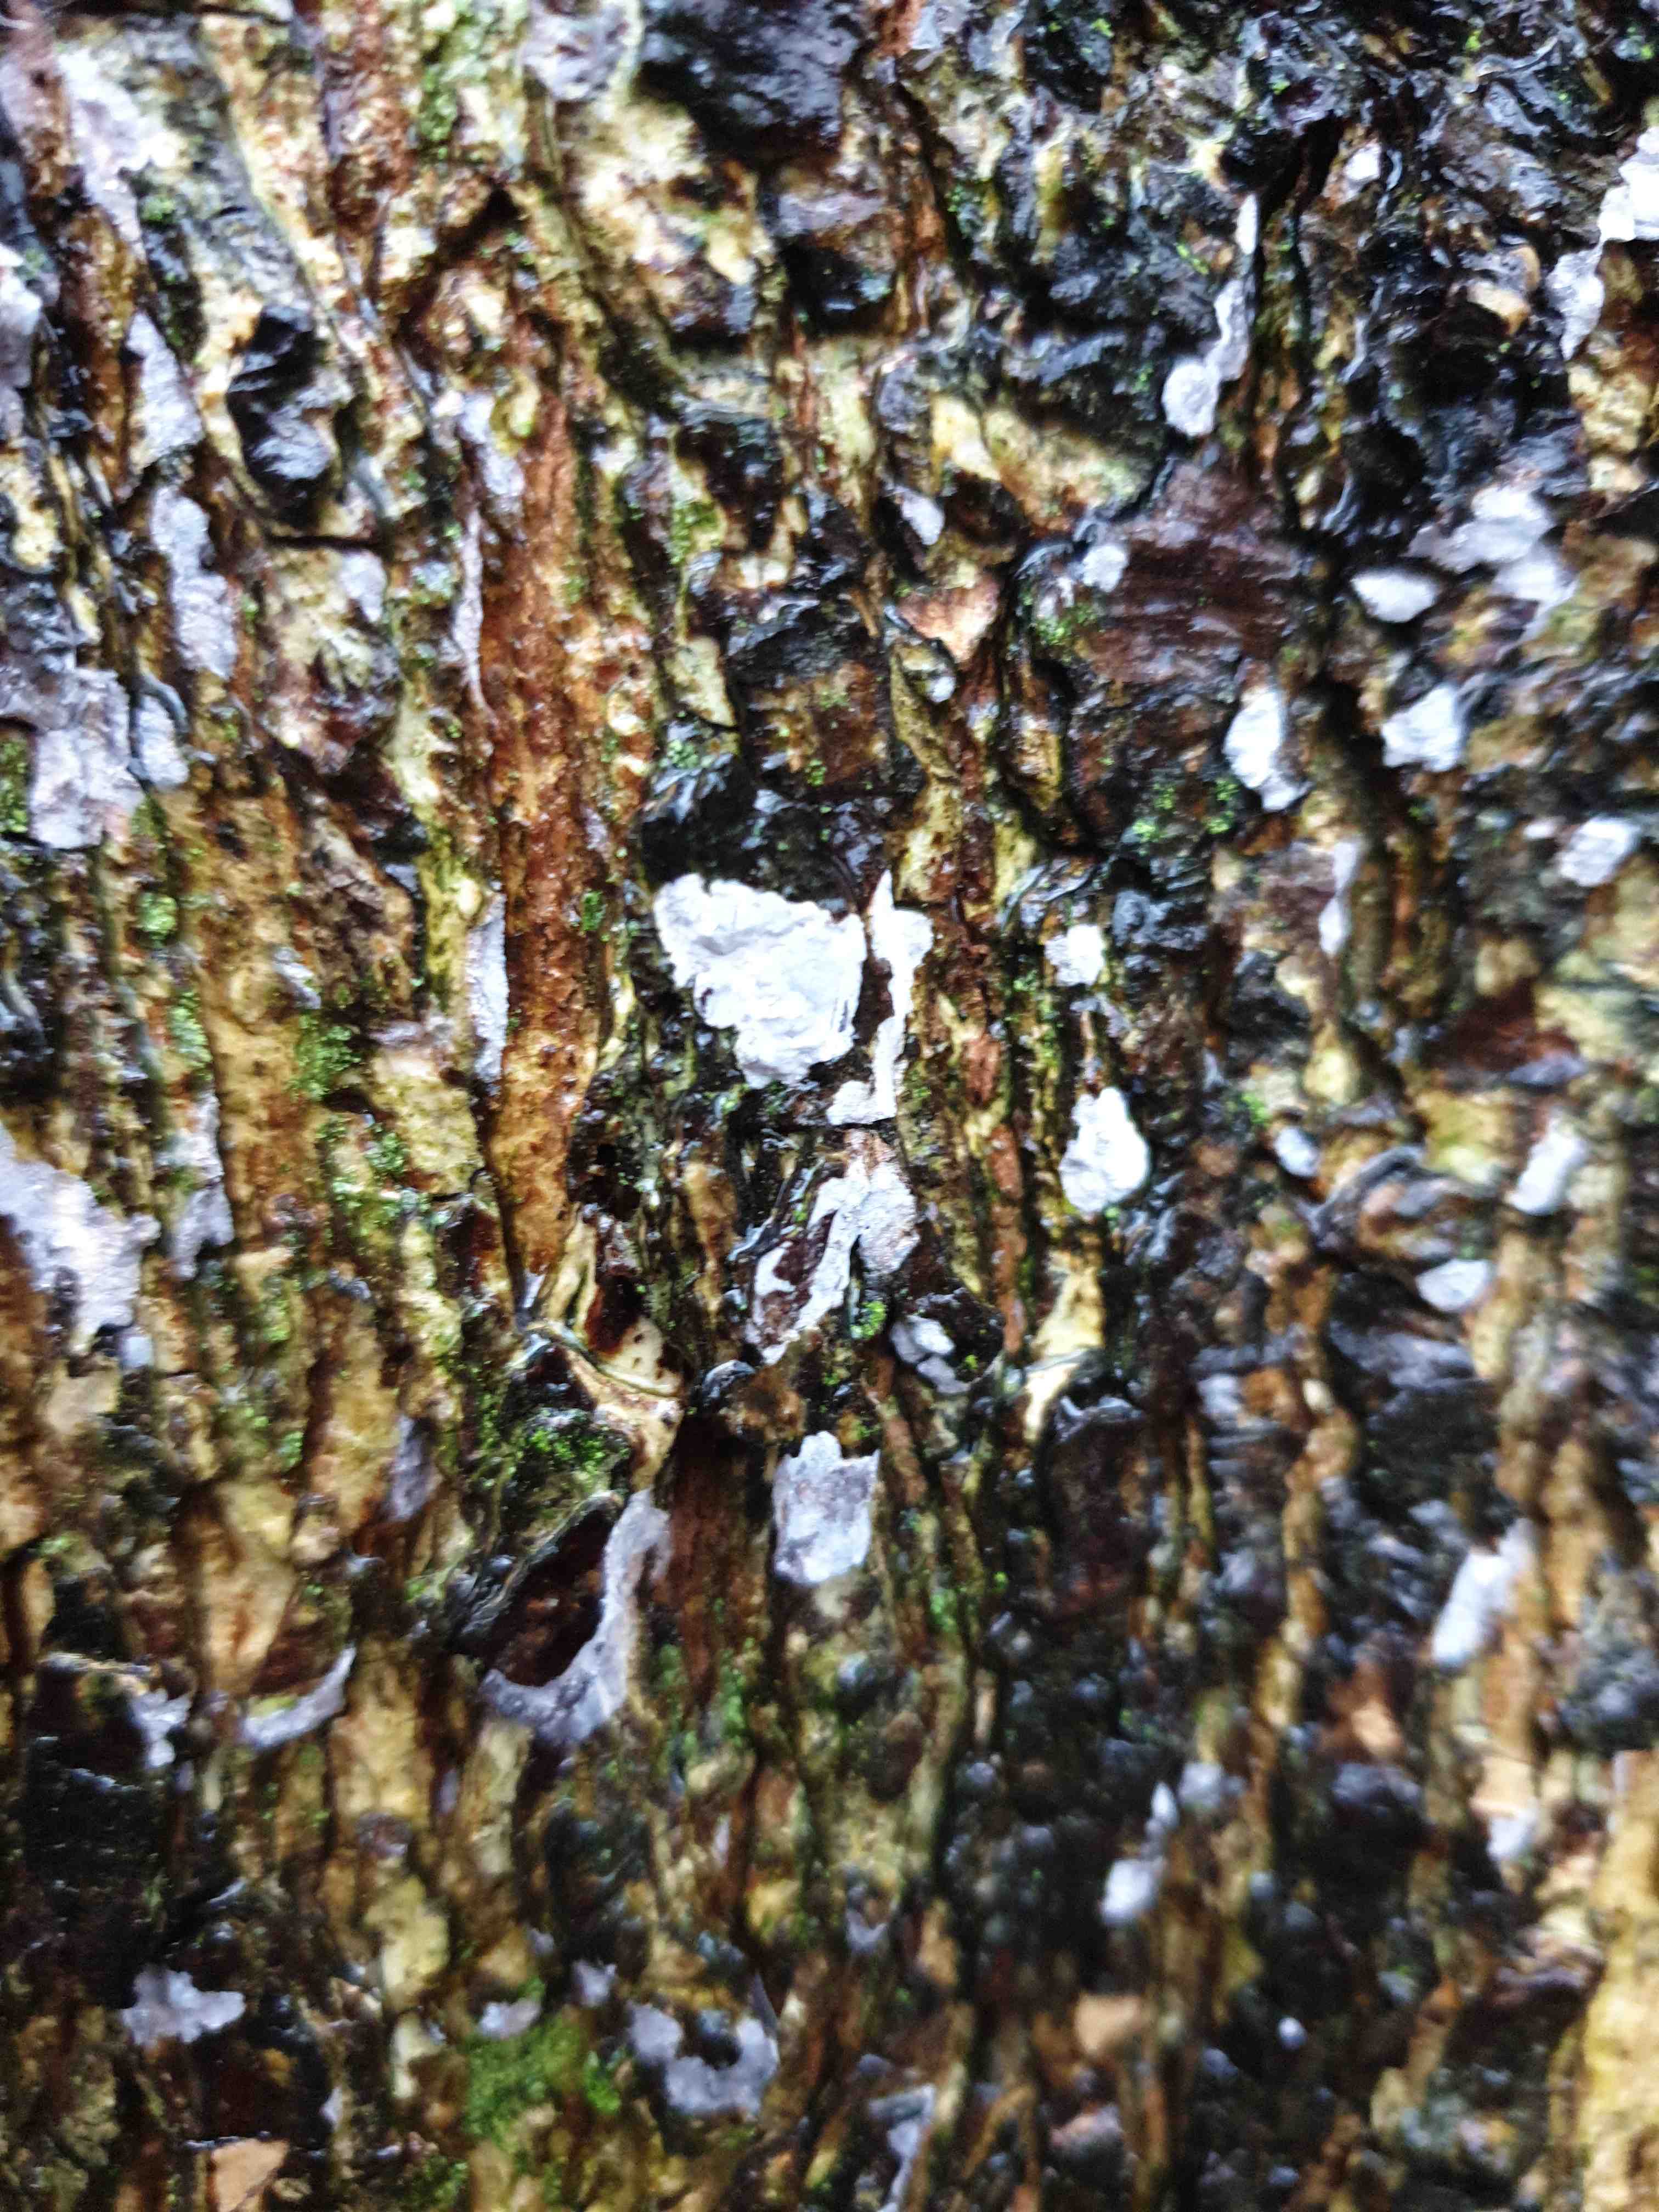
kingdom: Fungi
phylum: Basidiomycota
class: Agaricomycetes
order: Agaricales
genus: Dendrothele
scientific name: Dendrothele acerina
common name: navr-kalkplet
